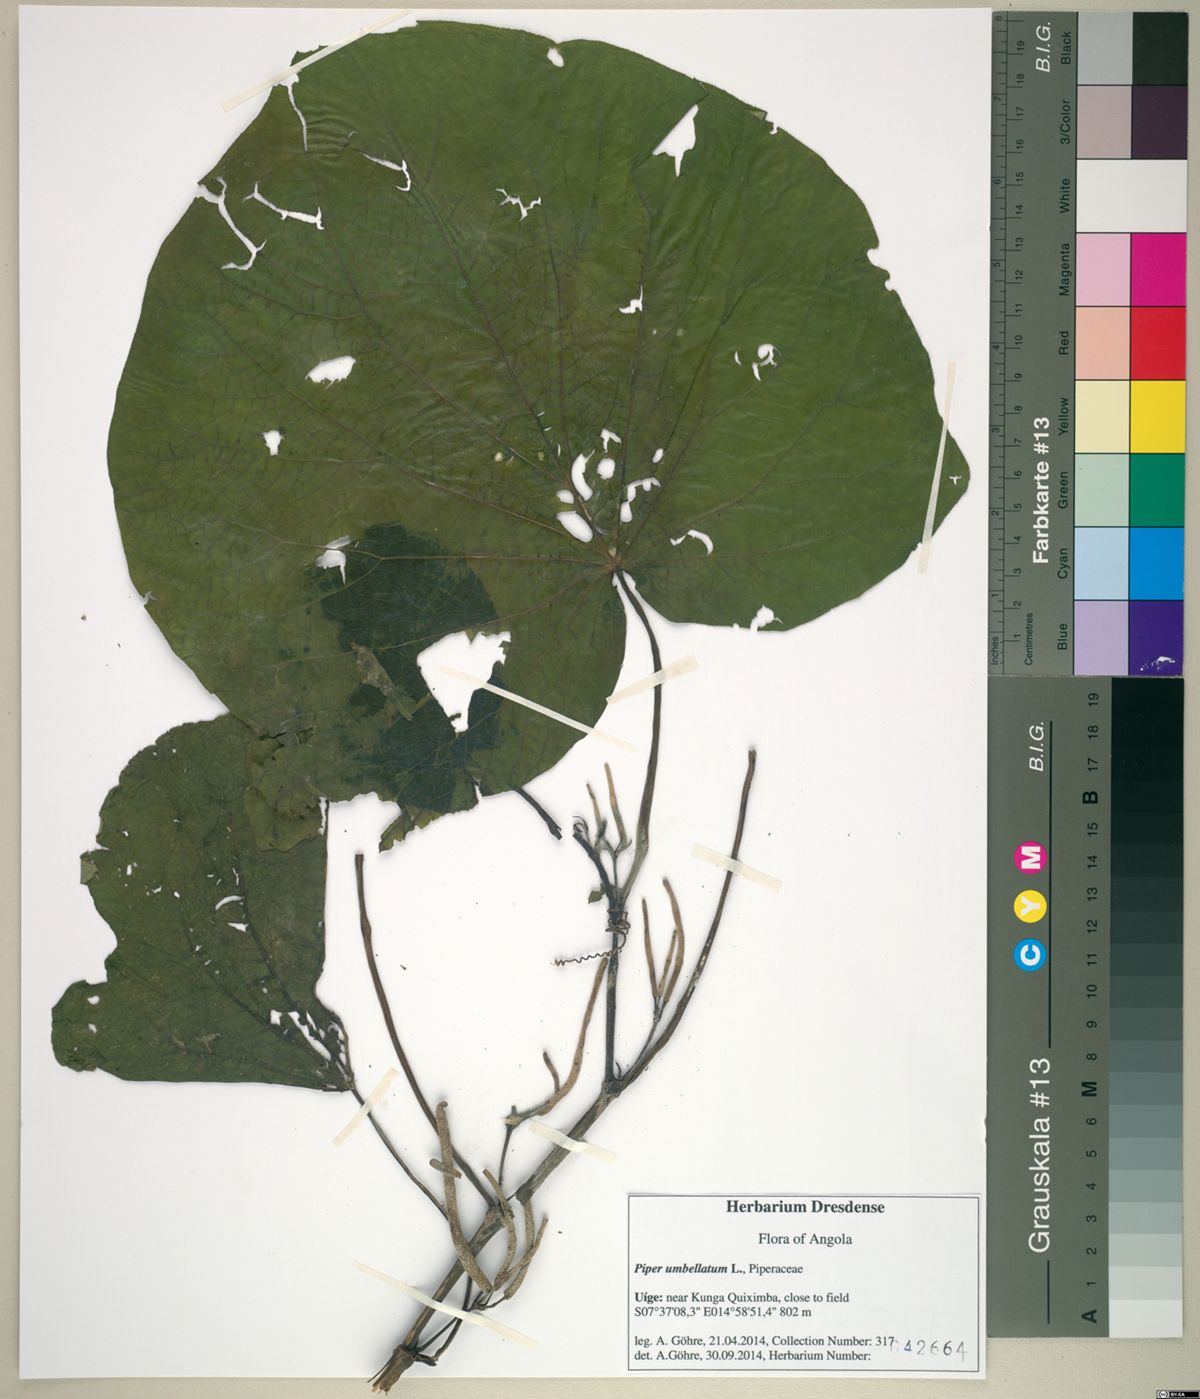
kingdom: Plantae
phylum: Tracheophyta
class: Magnoliopsida
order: Piperales
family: Piperaceae
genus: Piper
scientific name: Piper umbellatum
